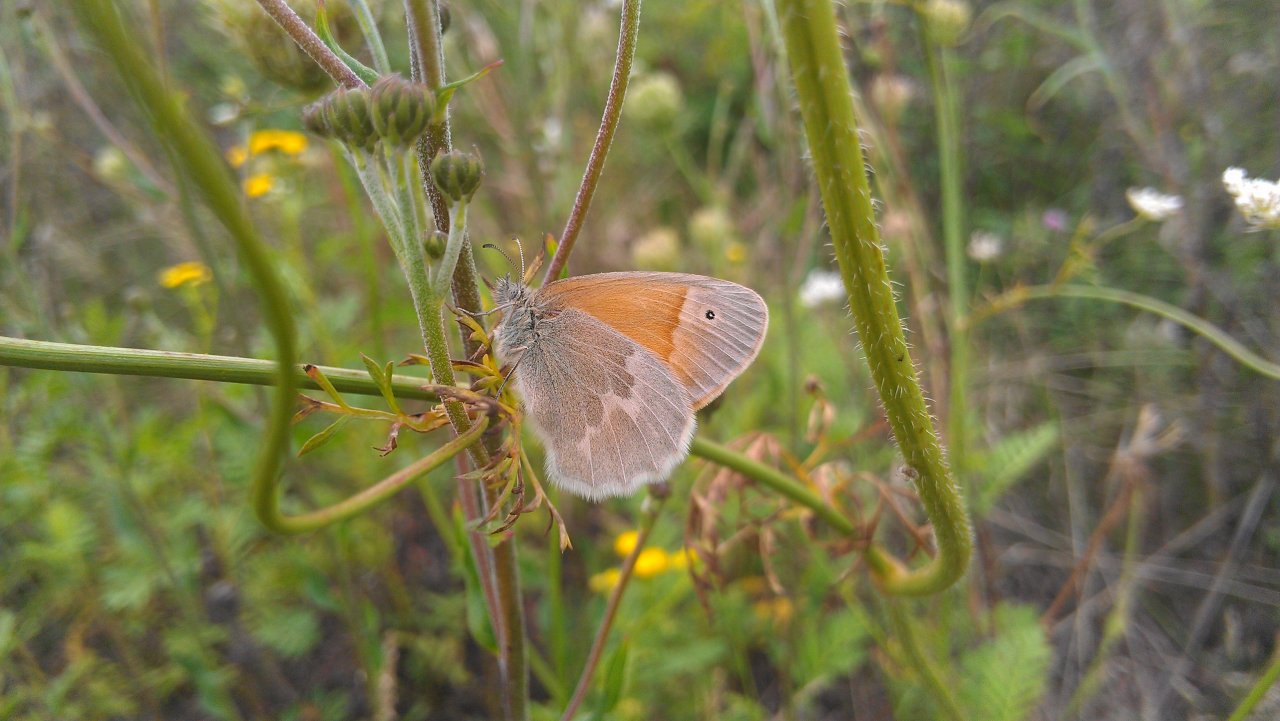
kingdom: Animalia
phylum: Arthropoda
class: Insecta
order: Lepidoptera
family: Nymphalidae
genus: Coenonympha
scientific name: Coenonympha tullia
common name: Large Heath
